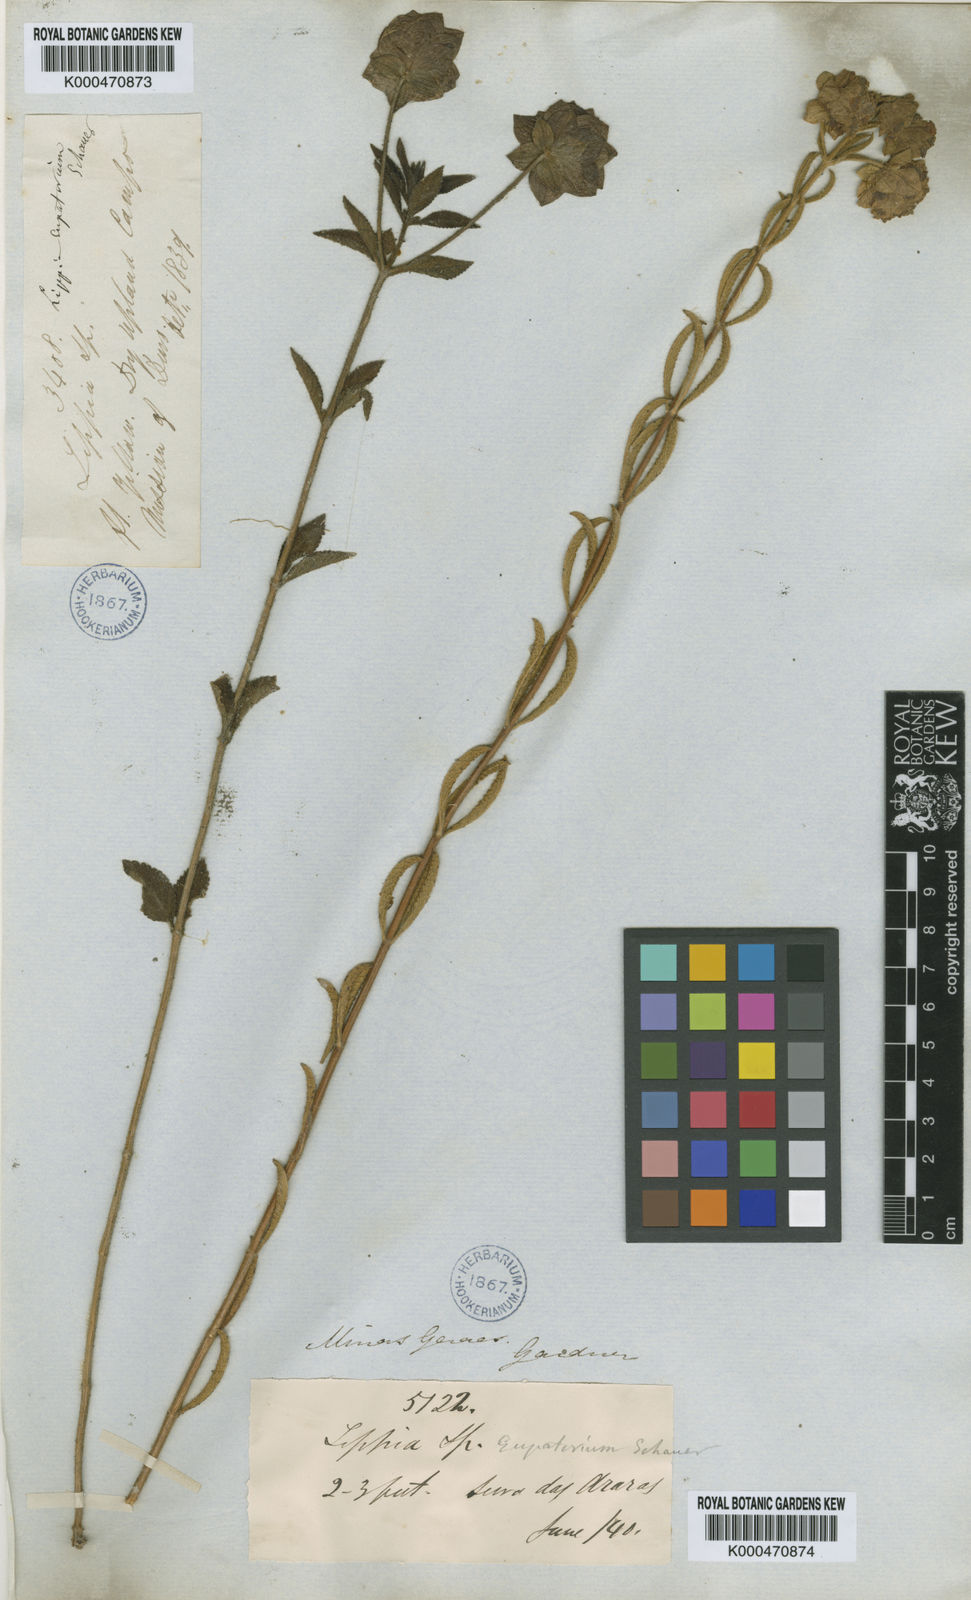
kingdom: Plantae
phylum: Tracheophyta
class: Magnoliopsida
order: Lamiales
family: Verbenaceae
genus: Lippia
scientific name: Lippia eupatorium
